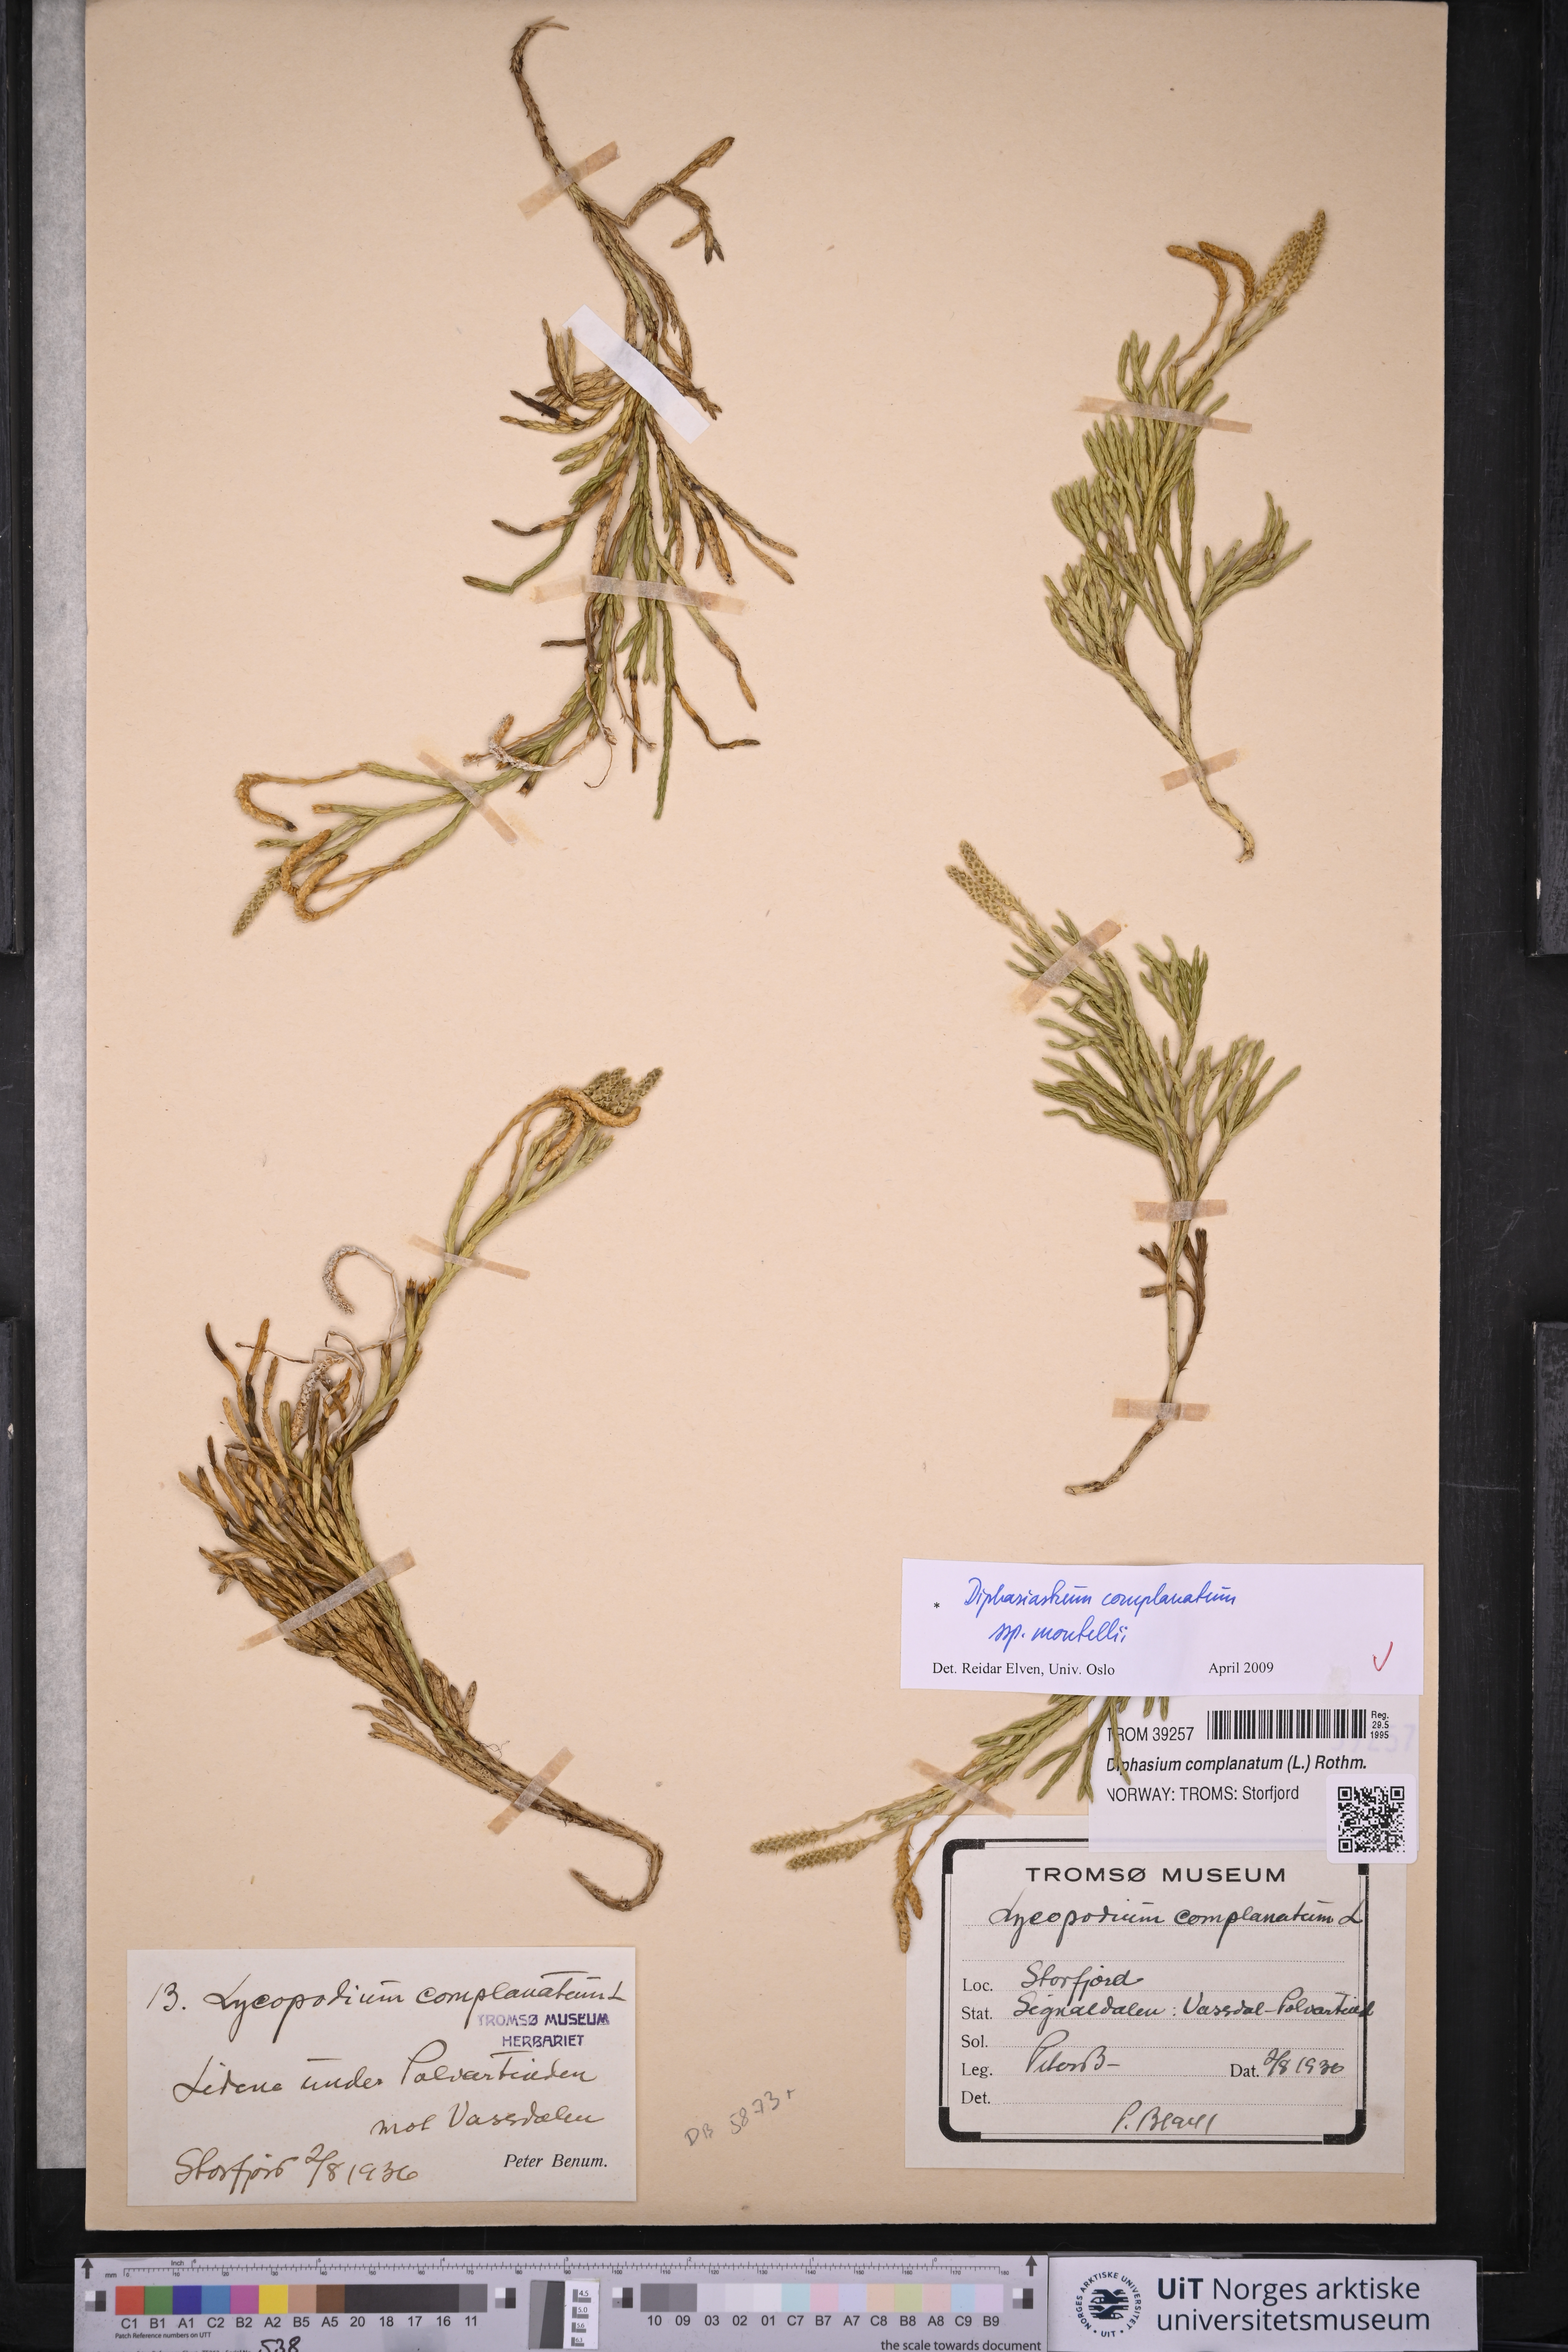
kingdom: Plantae
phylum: Tracheophyta
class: Lycopodiopsida
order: Lycopodiales
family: Lycopodiaceae
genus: Diphasiastrum
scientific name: Diphasiastrum complanatum
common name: Northern running-pine
